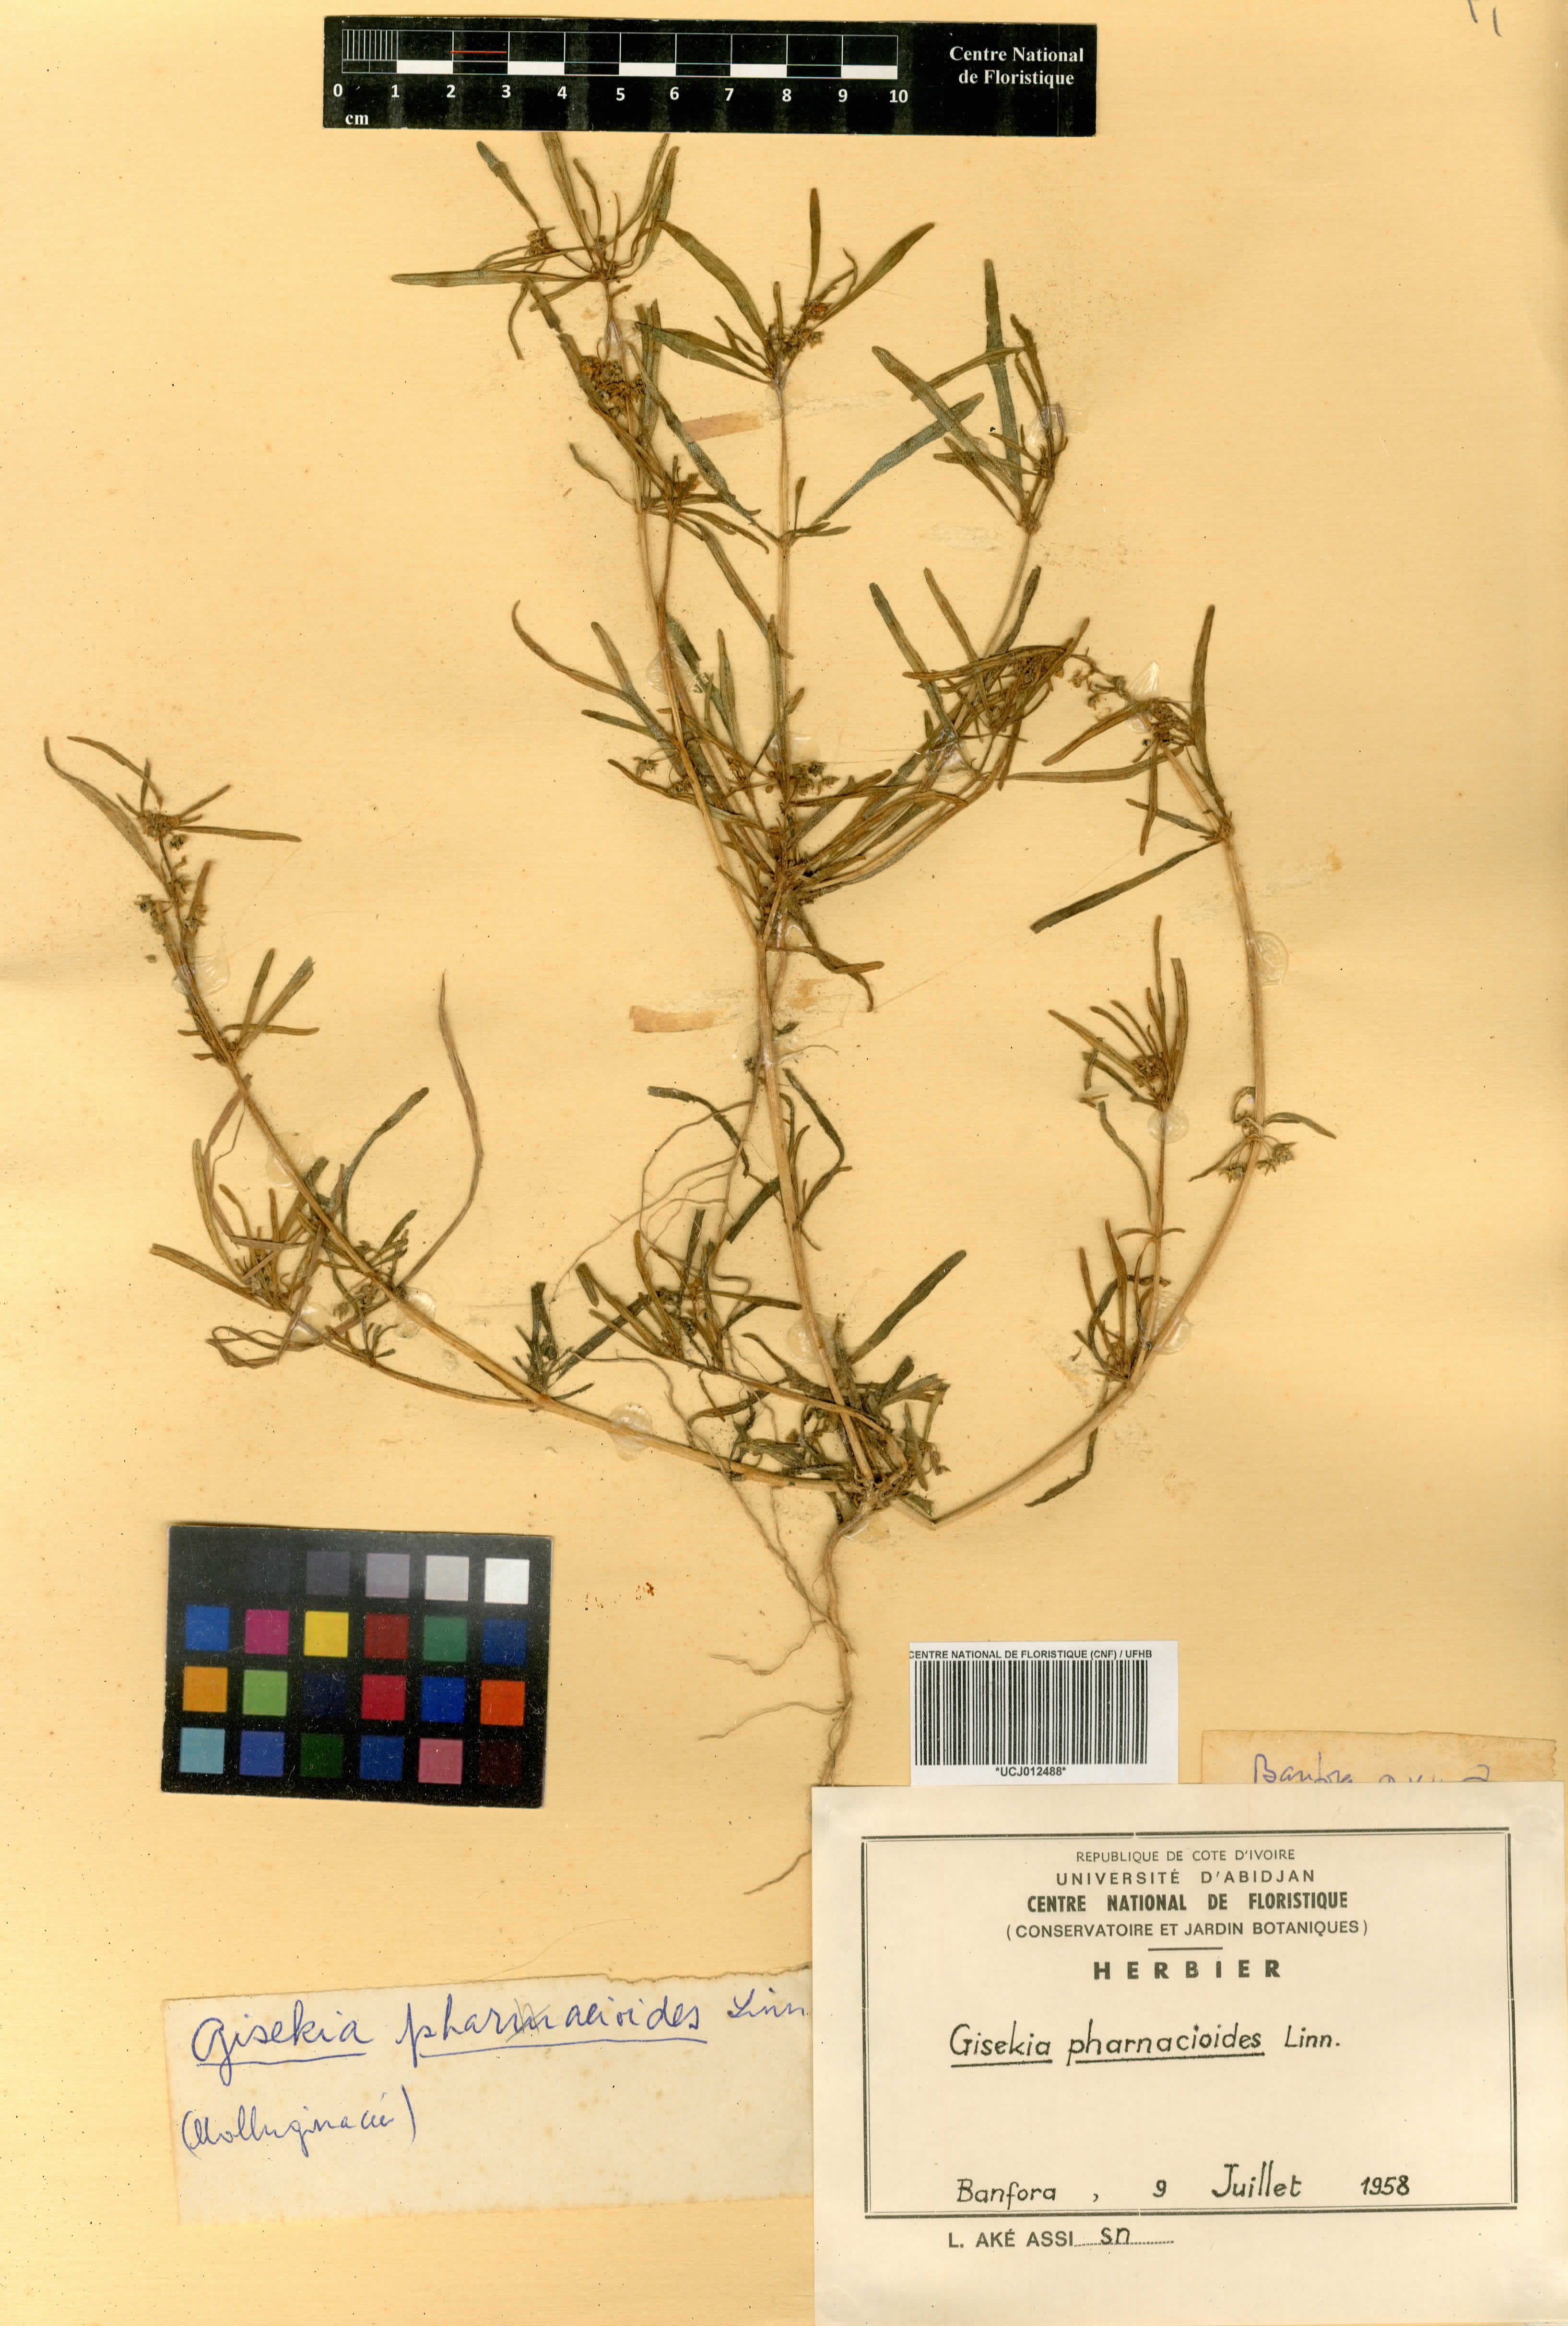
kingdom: Plantae
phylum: Tracheophyta
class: Magnoliopsida
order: Caryophyllales
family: Gisekiaceae
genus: Gisekia
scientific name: Gisekia pharnacioides
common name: Oldmaid
